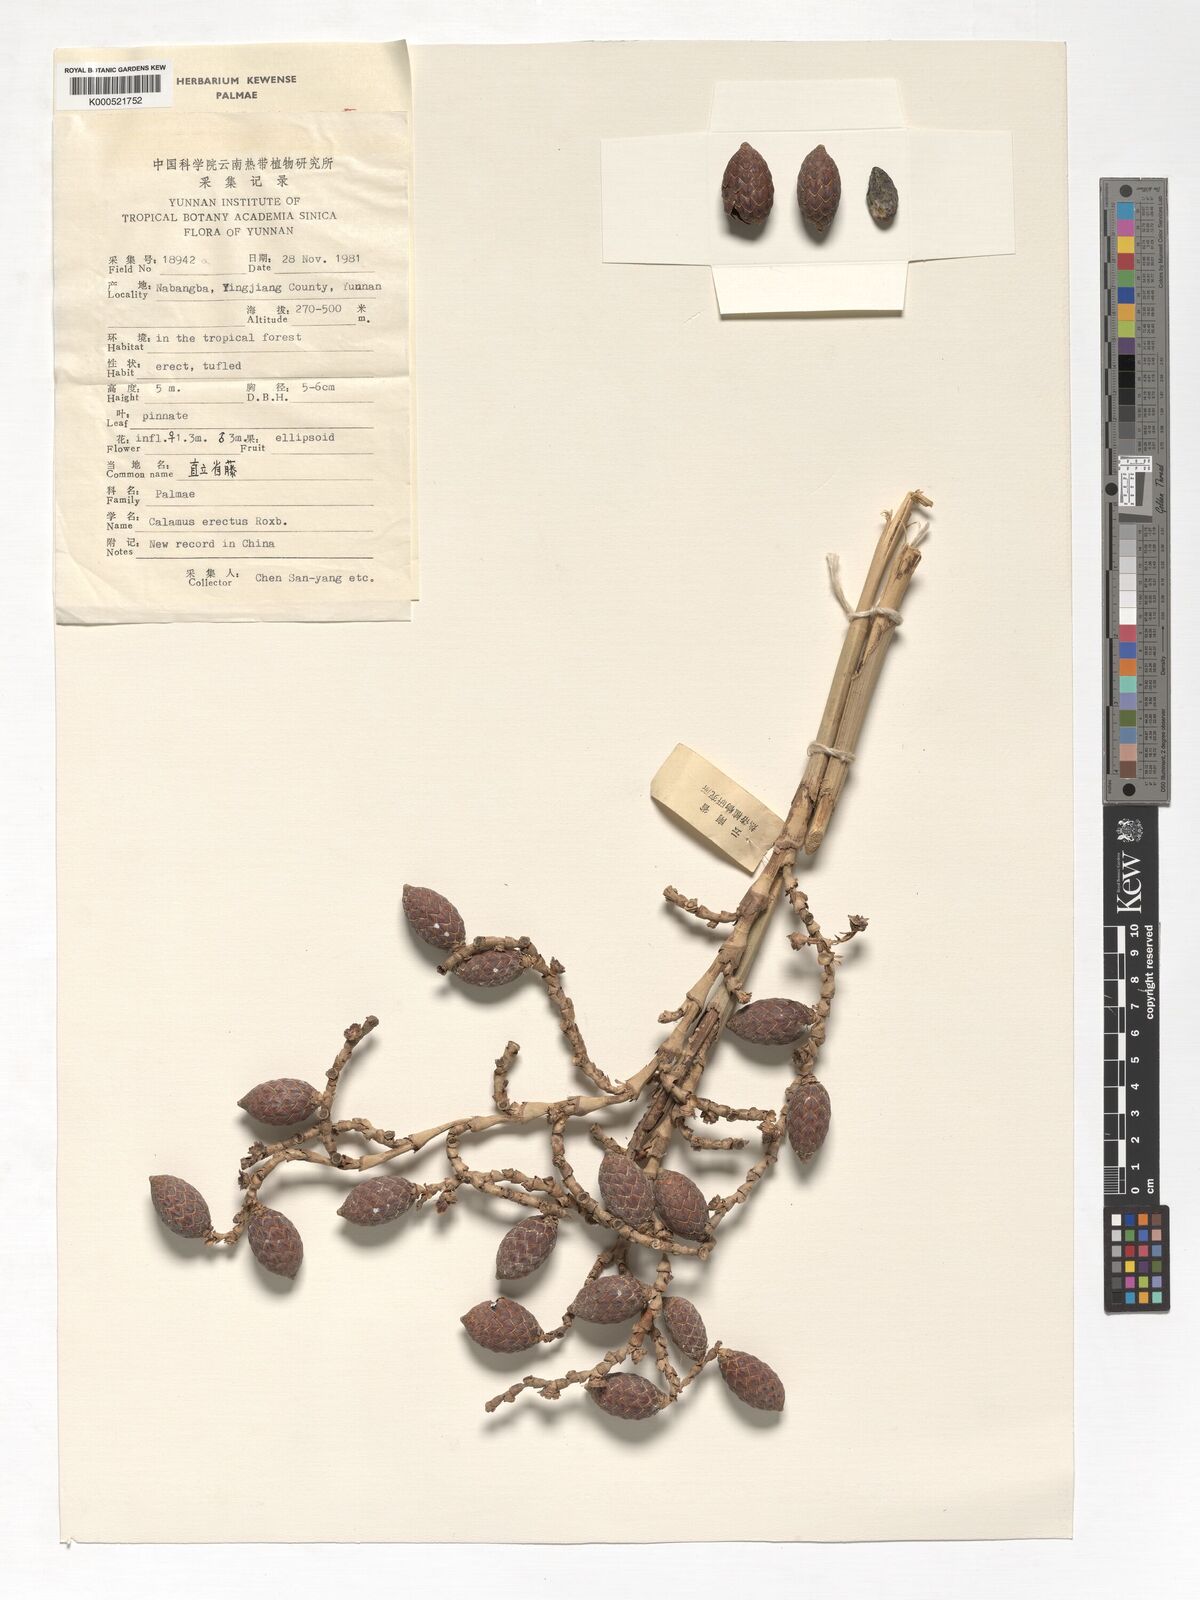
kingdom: Plantae
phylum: Tracheophyta
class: Liliopsida
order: Arecales
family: Arecaceae
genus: Calamus
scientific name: Calamus erectus
